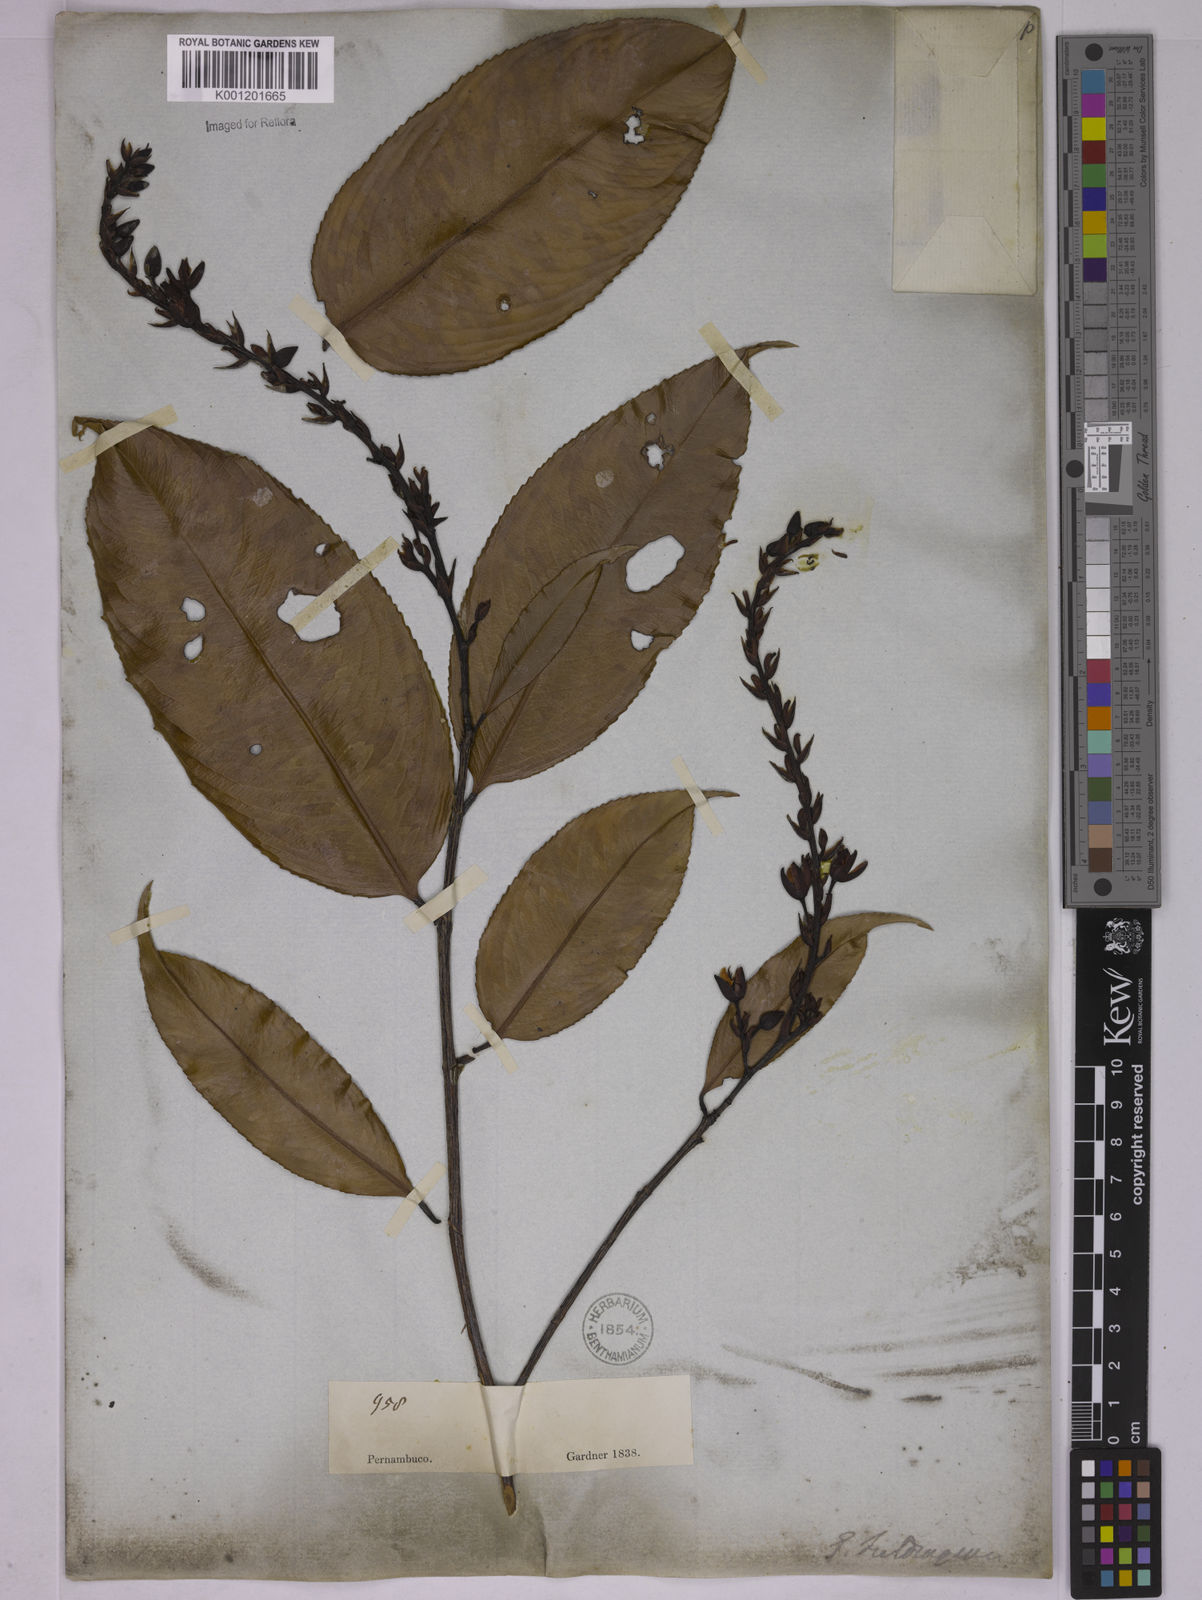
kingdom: Plantae
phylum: Tracheophyta
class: Magnoliopsida
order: Malpighiales
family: Ochnaceae
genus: Ouratea
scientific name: Ouratea fieldingiana
